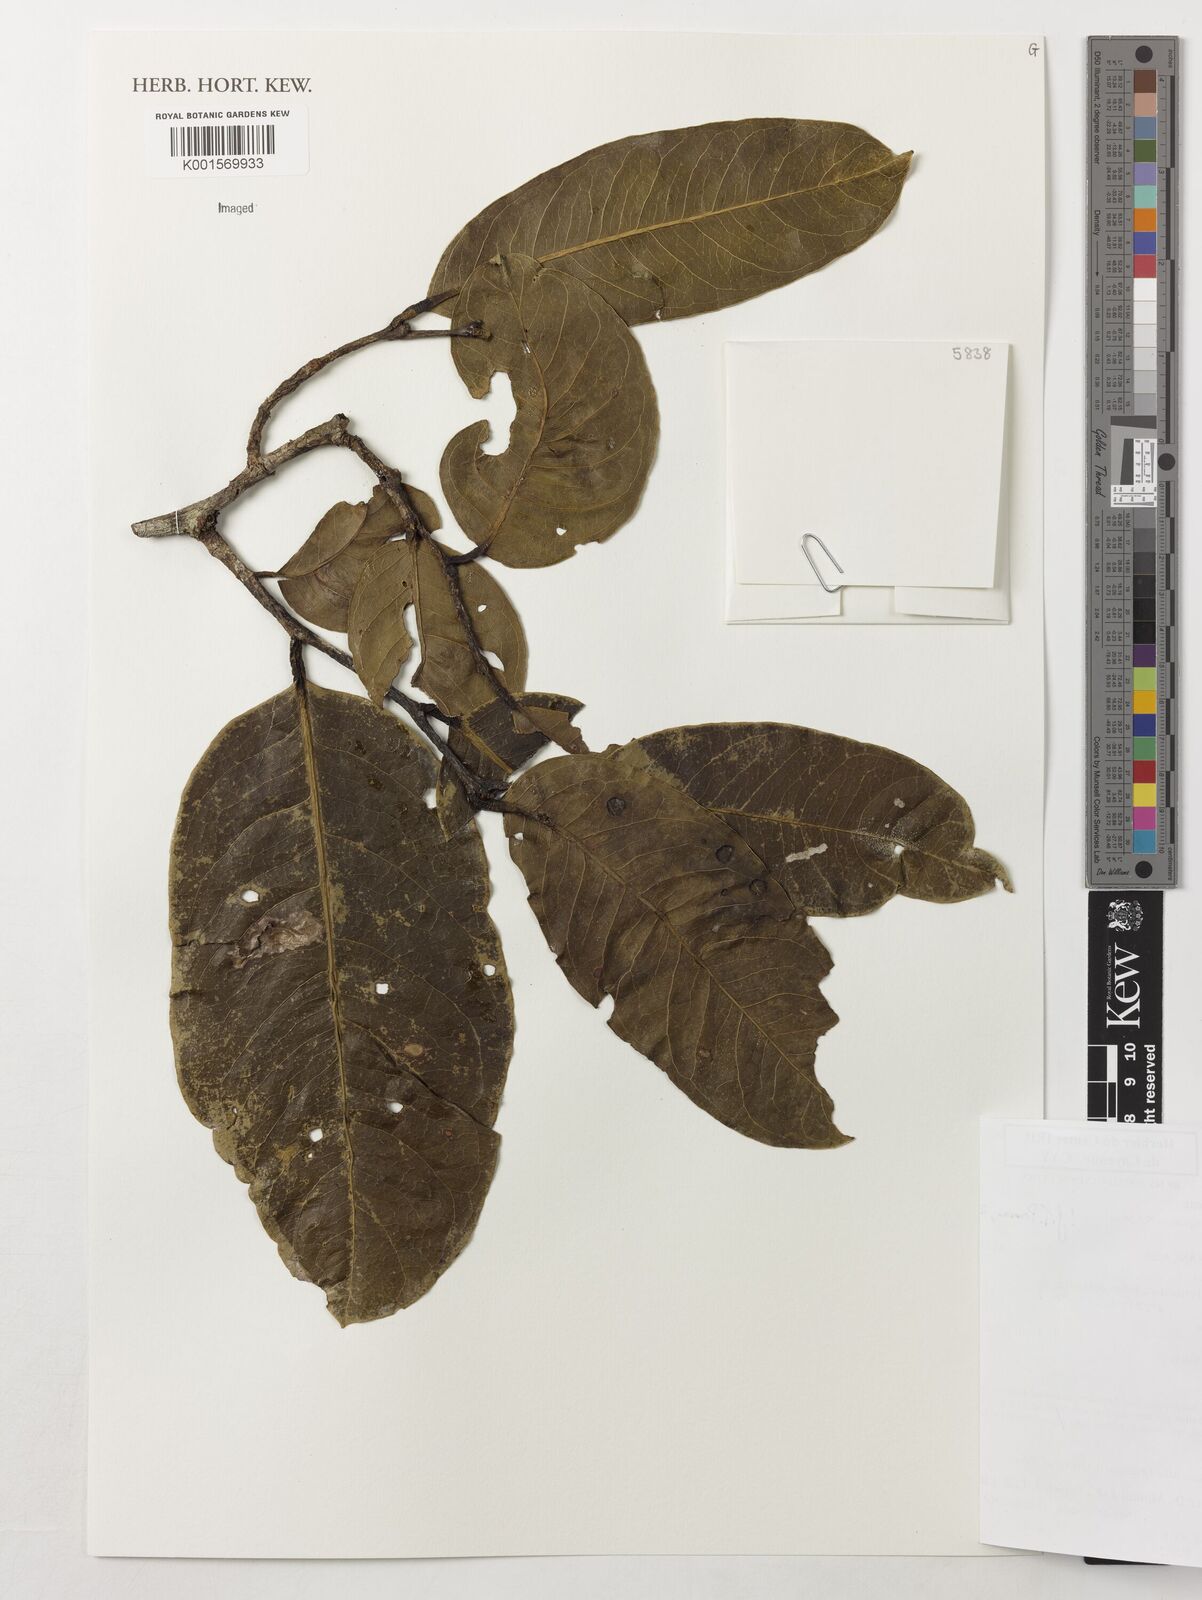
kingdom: Plantae
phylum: Tracheophyta
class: Magnoliopsida
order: Ericales
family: Lecythidaceae
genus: Eschweilera
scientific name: Eschweilera squamata
